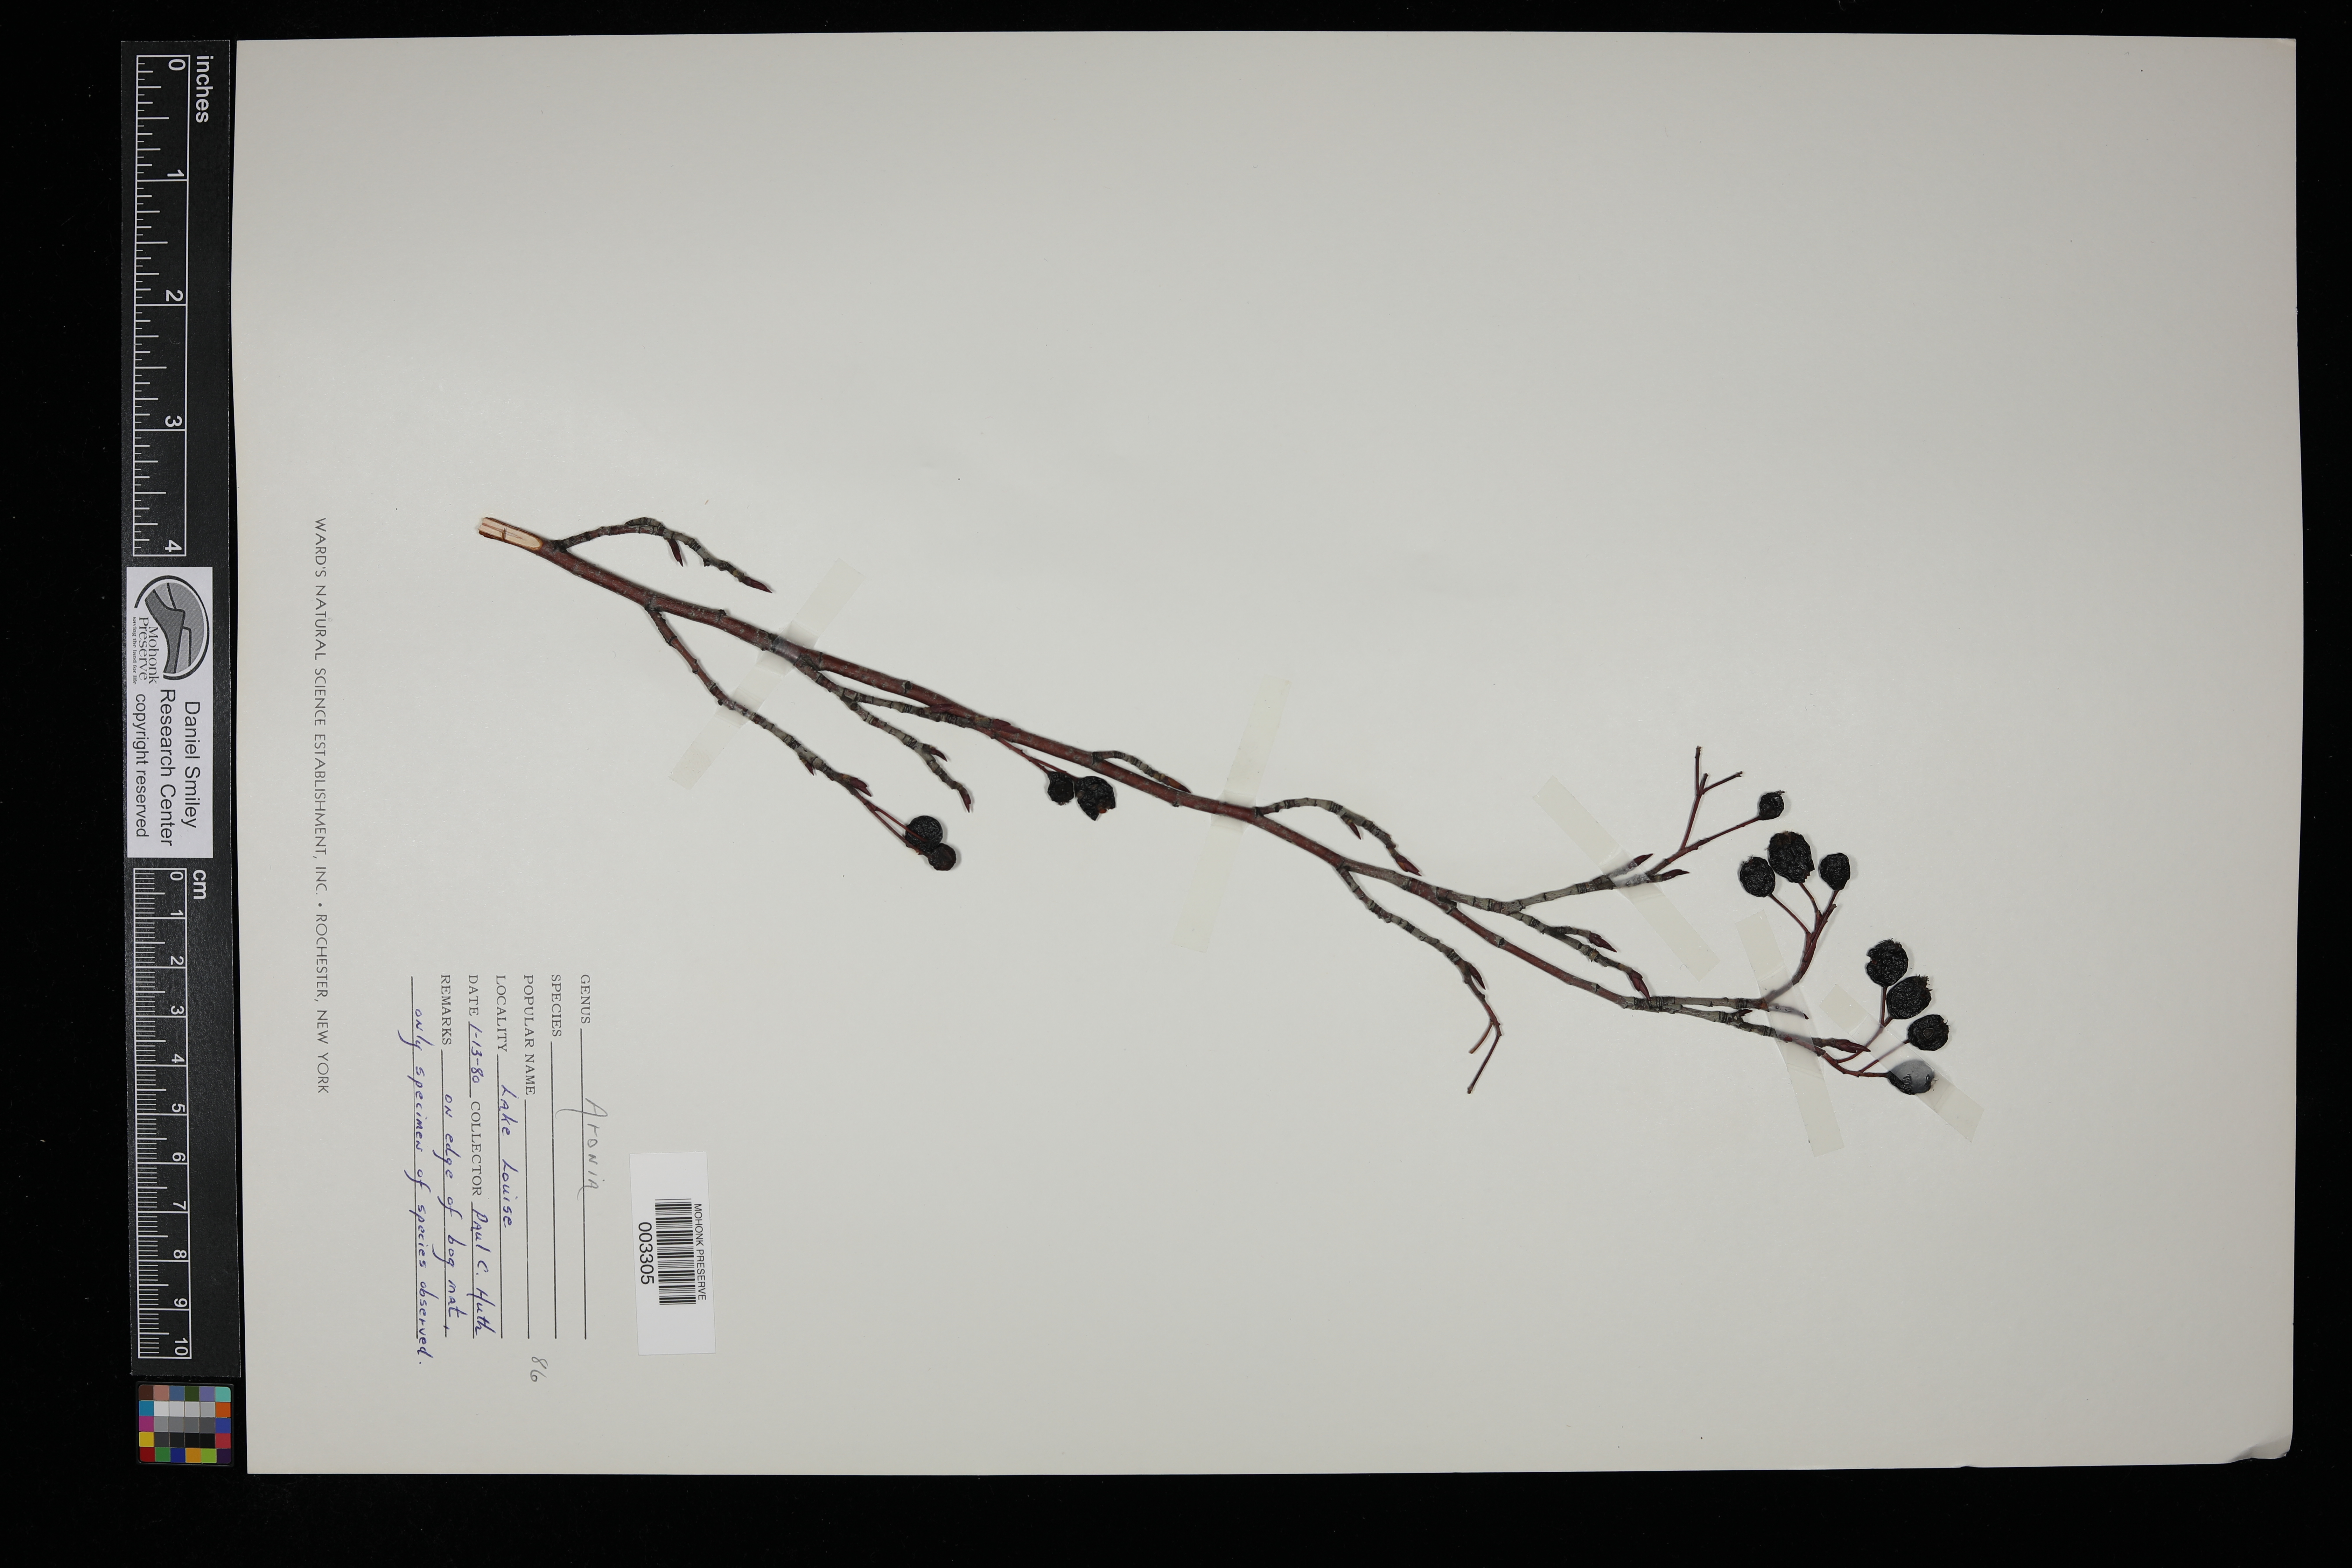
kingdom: Plantae
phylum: Tracheophyta
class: Magnoliopsida
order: Rosales
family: Rosaceae
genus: Aronia
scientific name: Aronia
